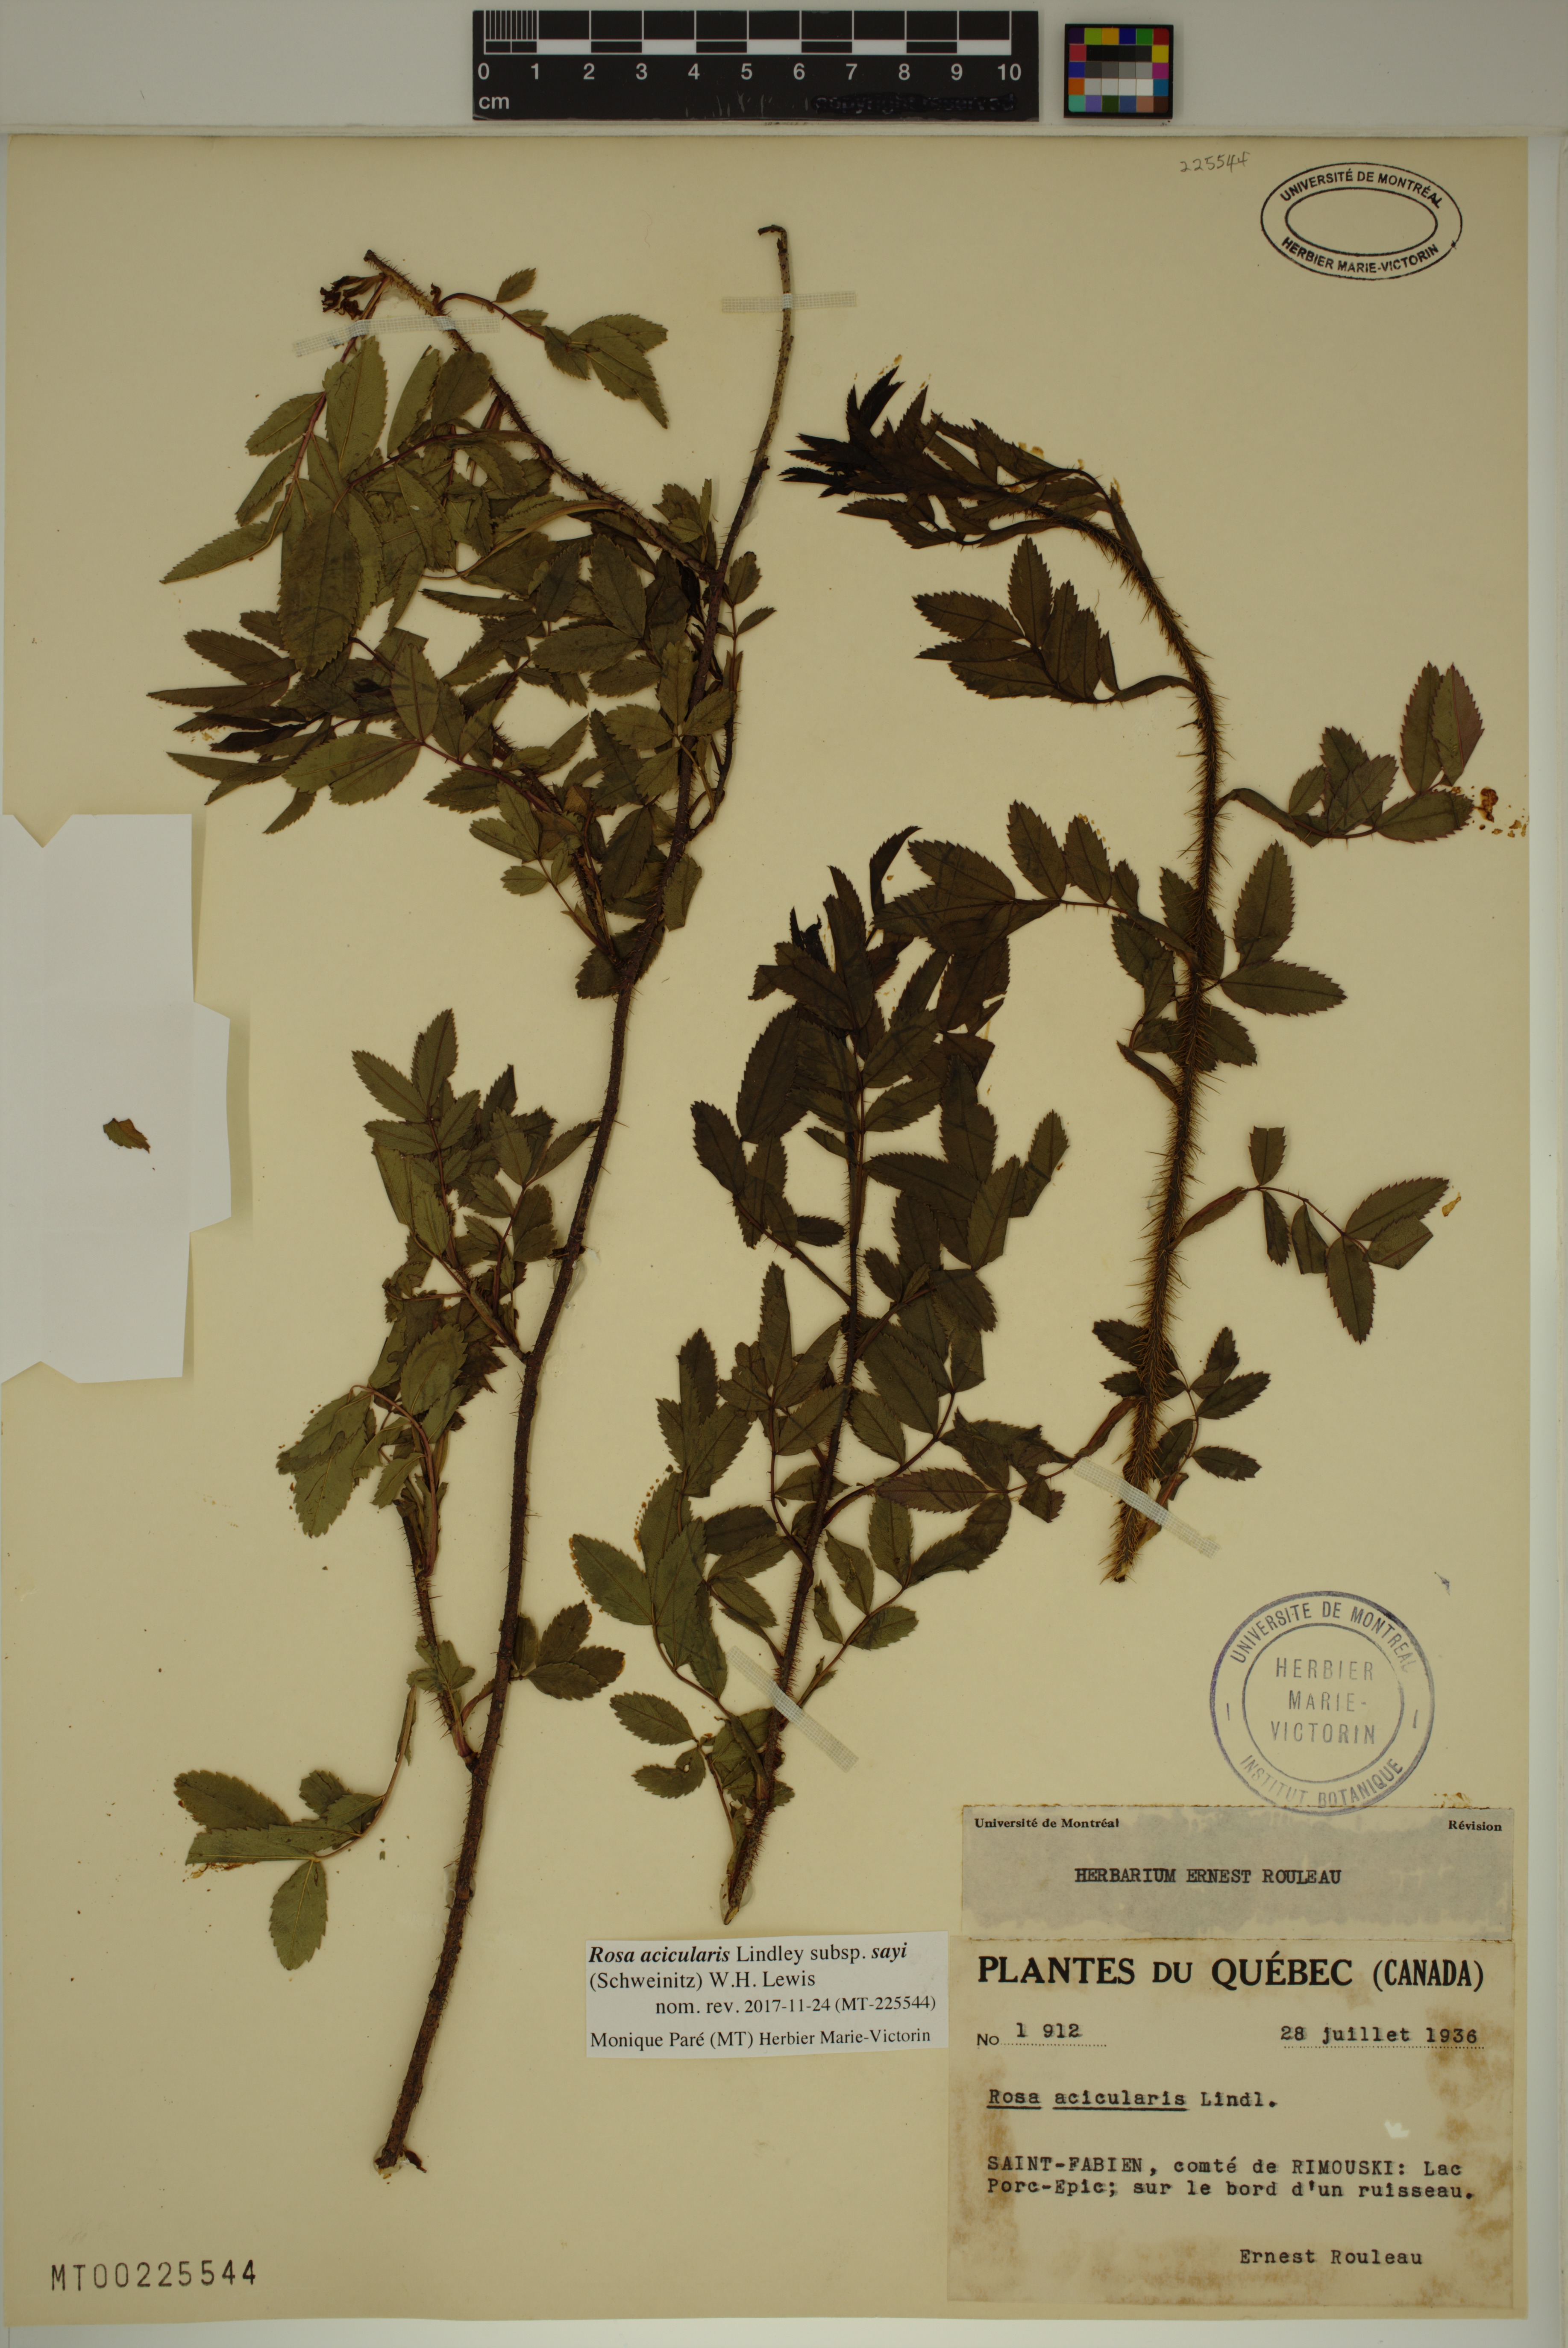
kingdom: Plantae
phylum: Tracheophyta
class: Magnoliopsida
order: Rosales
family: Rosaceae
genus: Rosa
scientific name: Rosa acicularis
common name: Prickly rose
